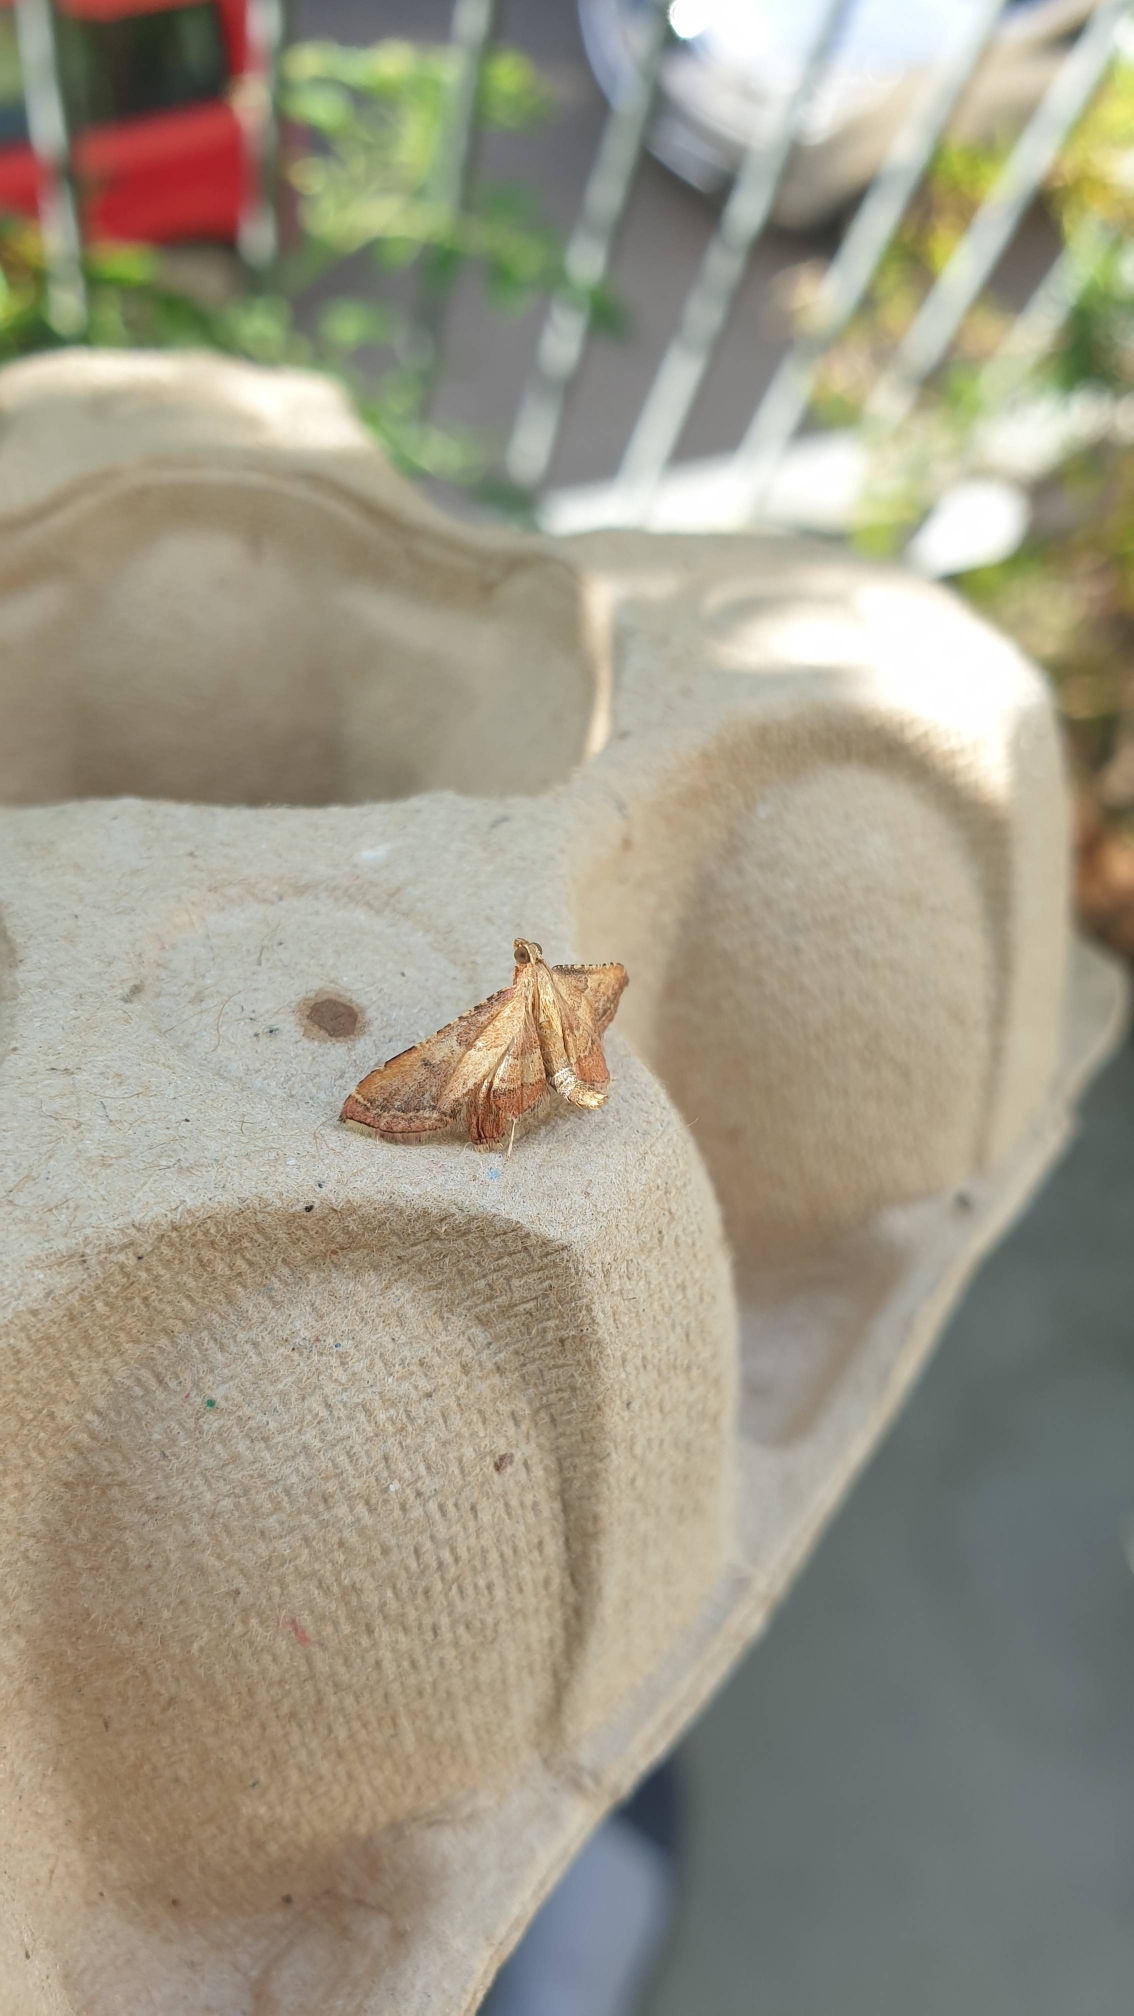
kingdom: Animalia
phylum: Arthropoda
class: Insecta
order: Lepidoptera
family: Pyralidae
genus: Endotricha
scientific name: Endotricha flammealis
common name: Løvkrathalvmøl
